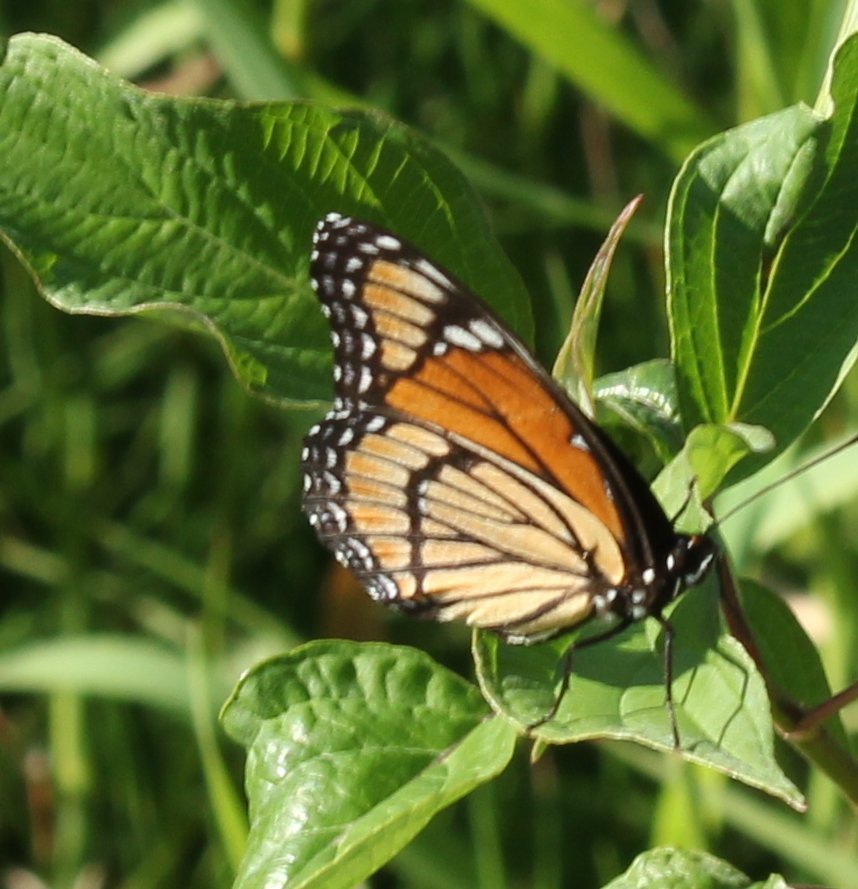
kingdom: Animalia
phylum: Arthropoda
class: Insecta
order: Lepidoptera
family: Nymphalidae
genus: Limenitis
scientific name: Limenitis archippus
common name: Viceroy
